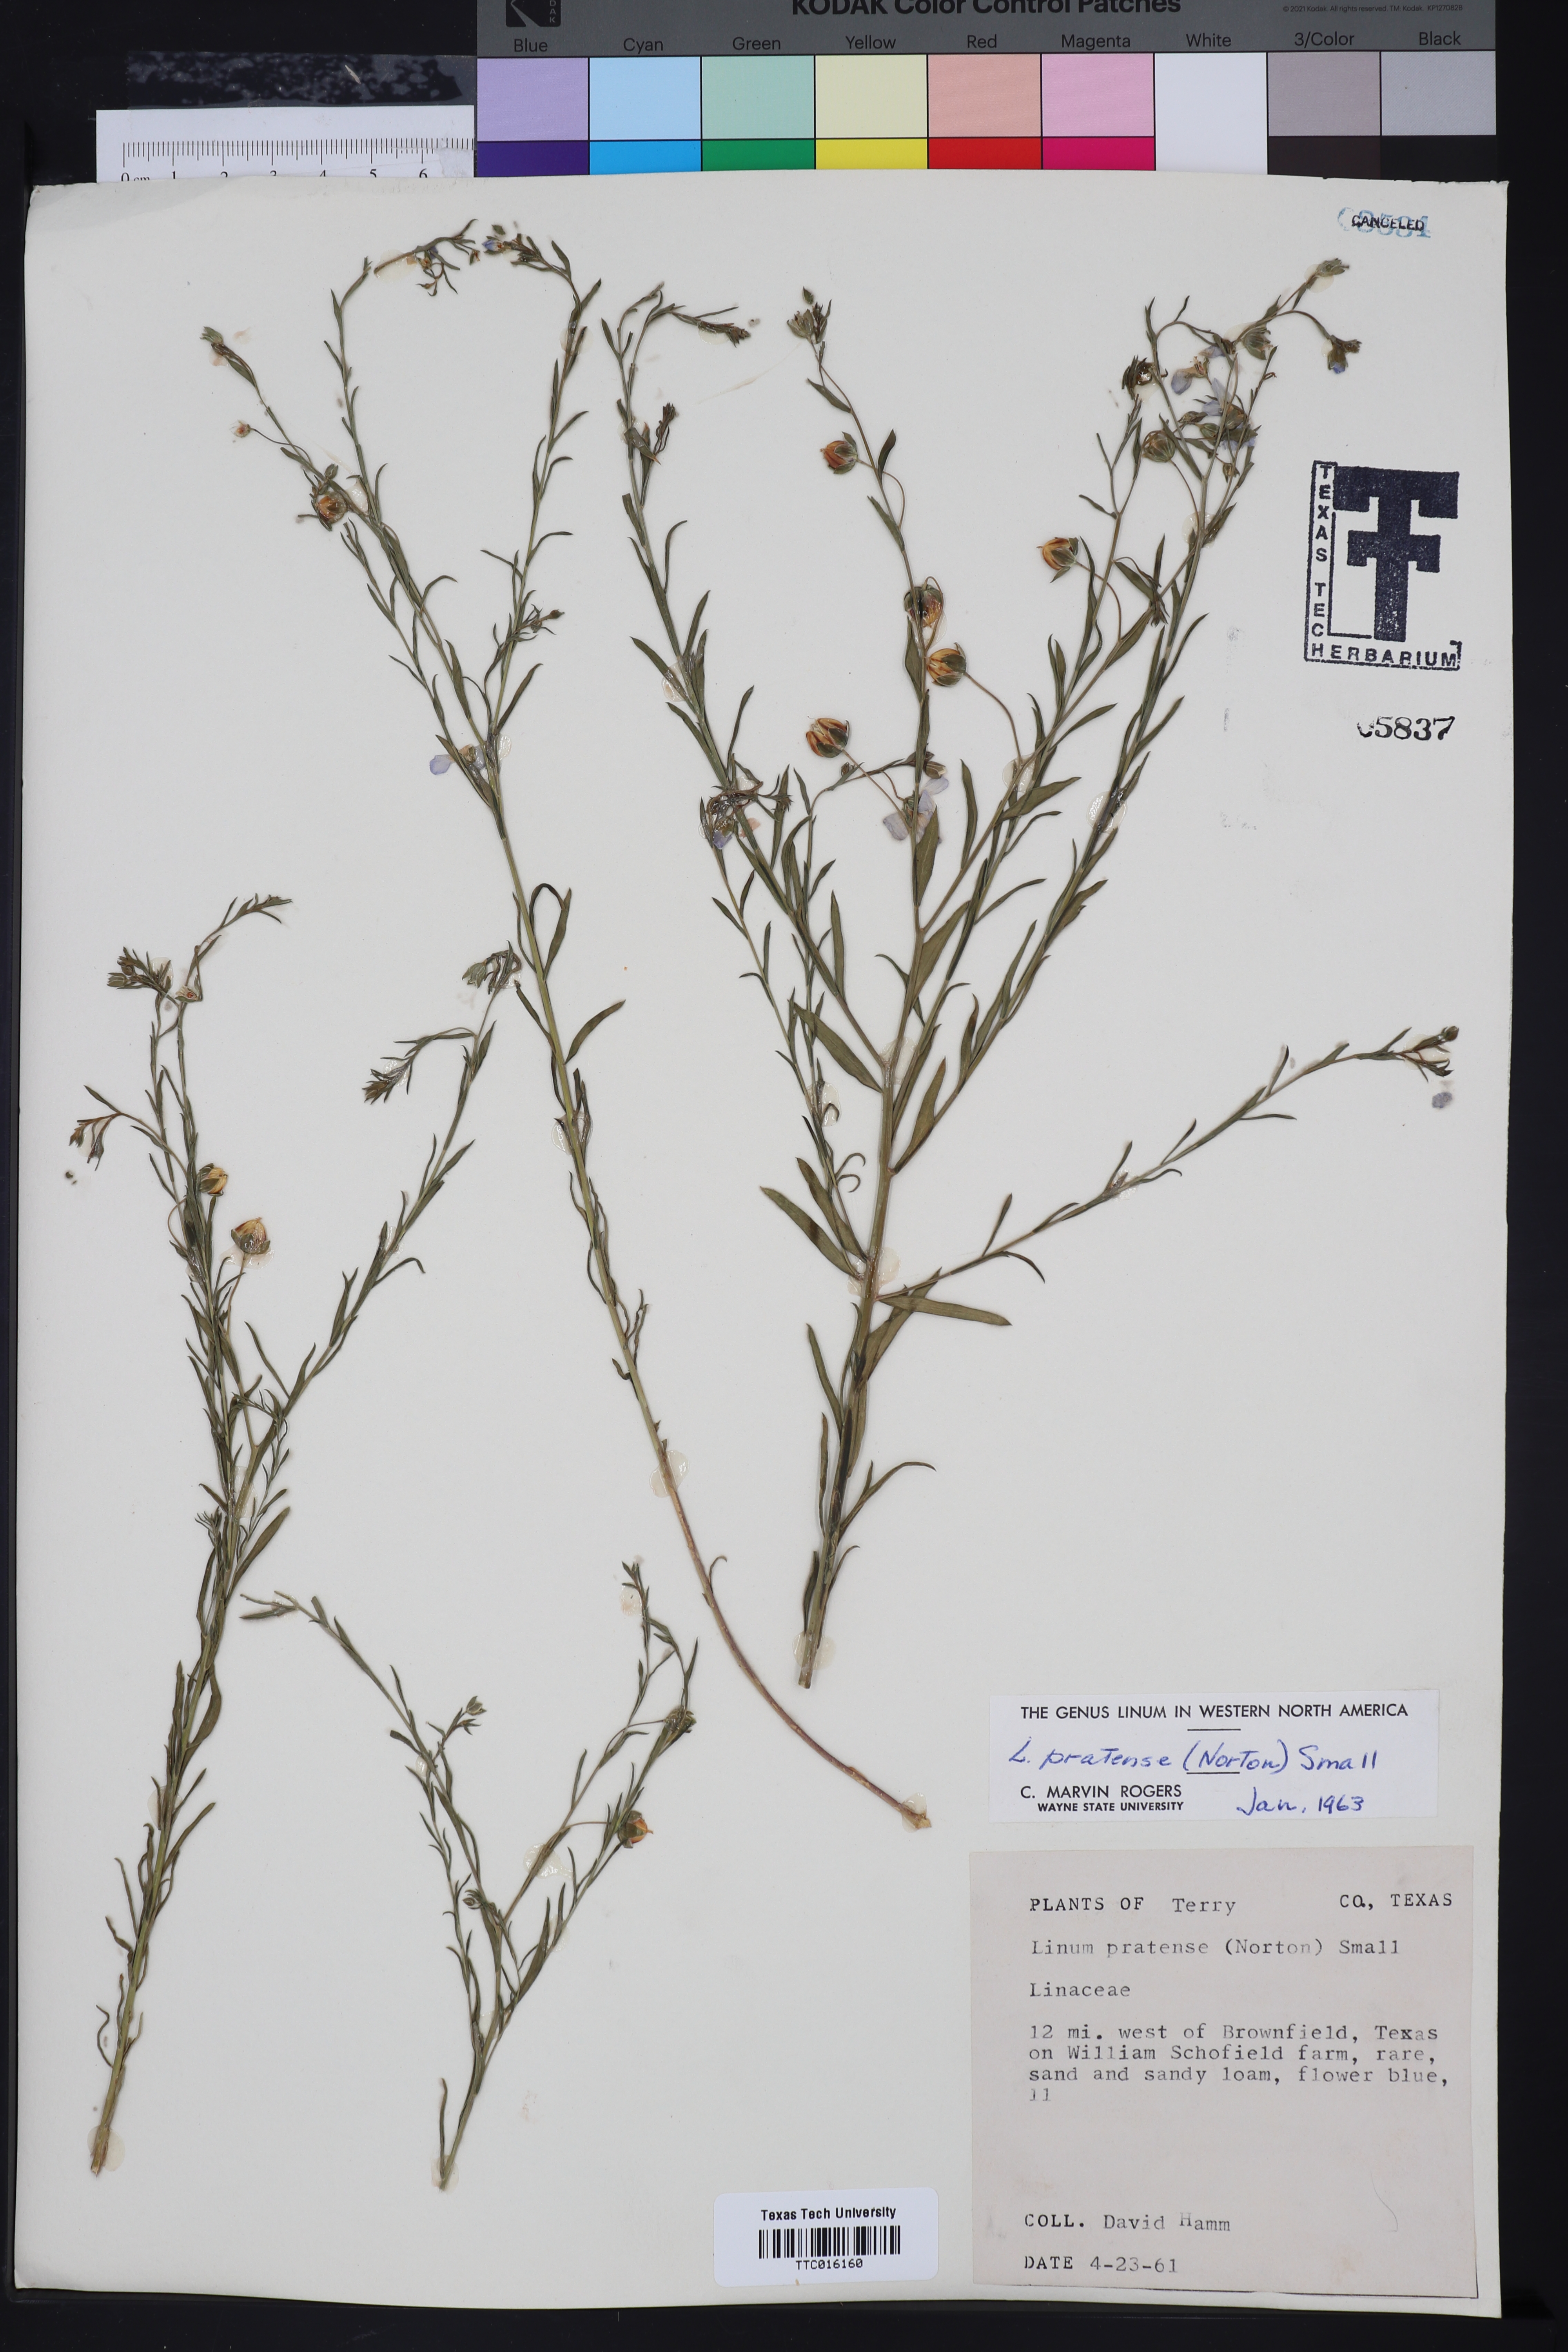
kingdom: Plantae
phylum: Tracheophyta
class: Magnoliopsida
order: Malpighiales
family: Linaceae
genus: Linum
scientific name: Linum pratense
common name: Norton's flax
